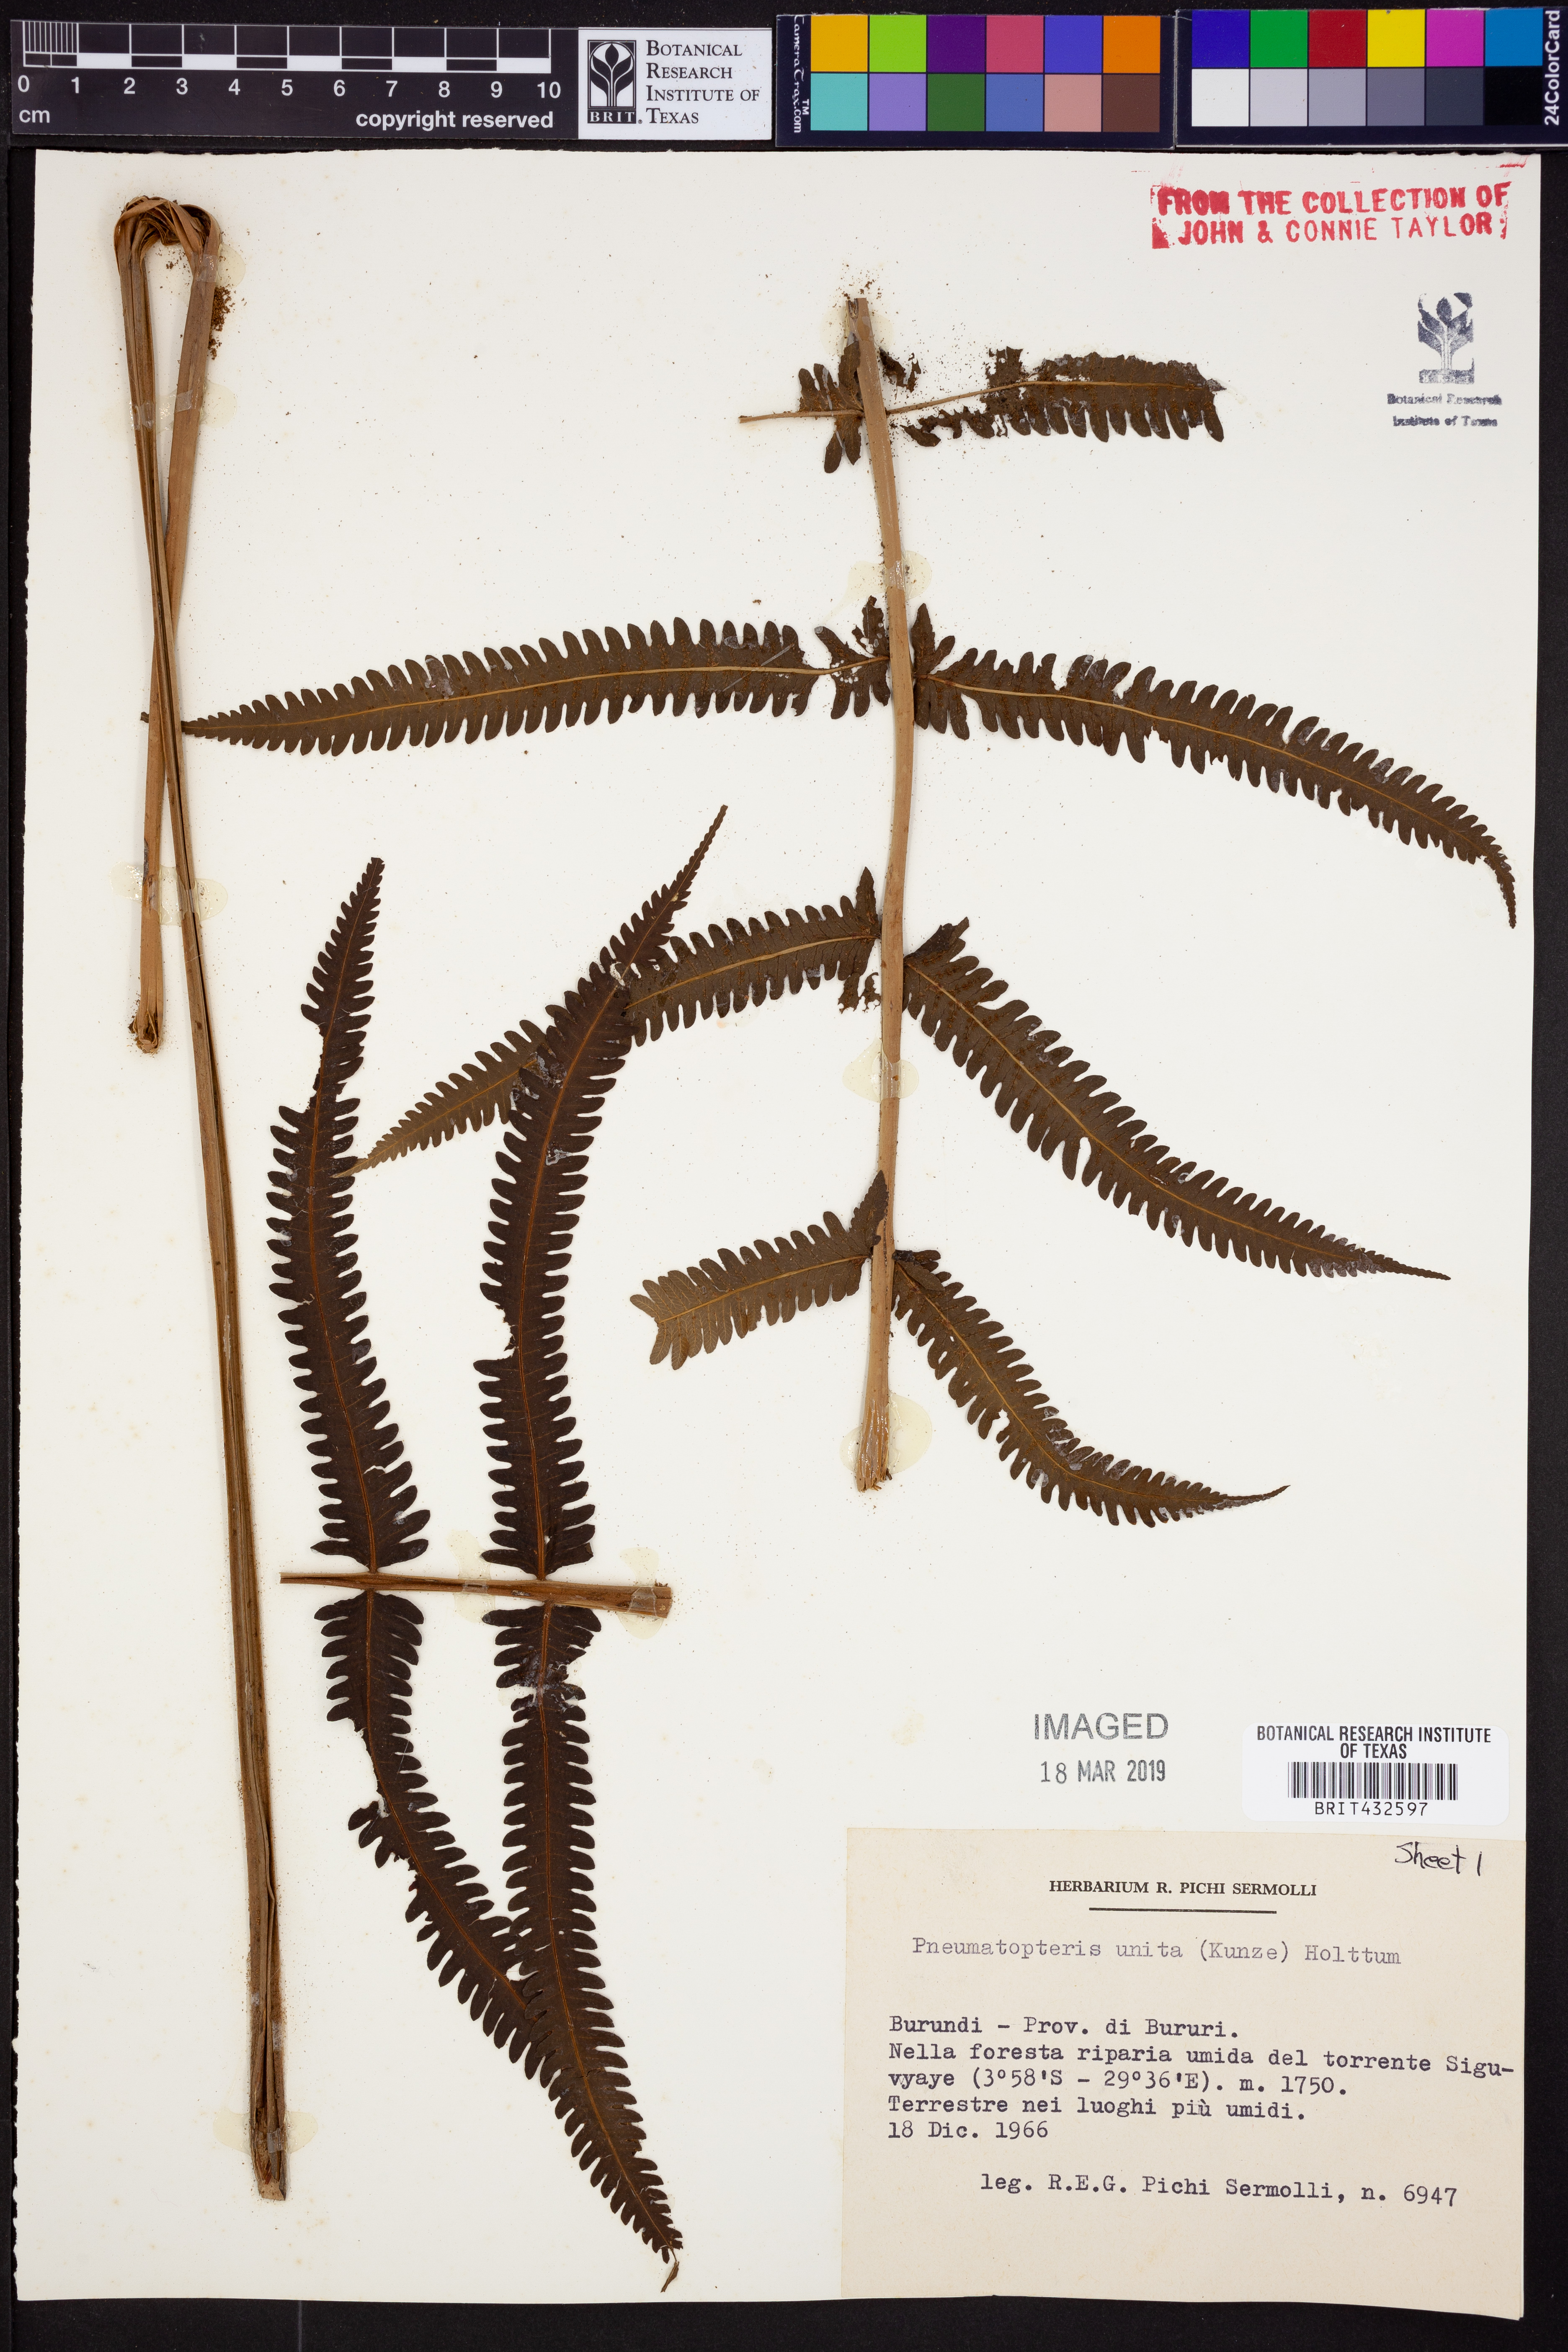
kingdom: Plantae
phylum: Tracheophyta
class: Polypodiopsida
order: Polypodiales
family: Thelypteridaceae
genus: Menisorus
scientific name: Menisorus unitus
